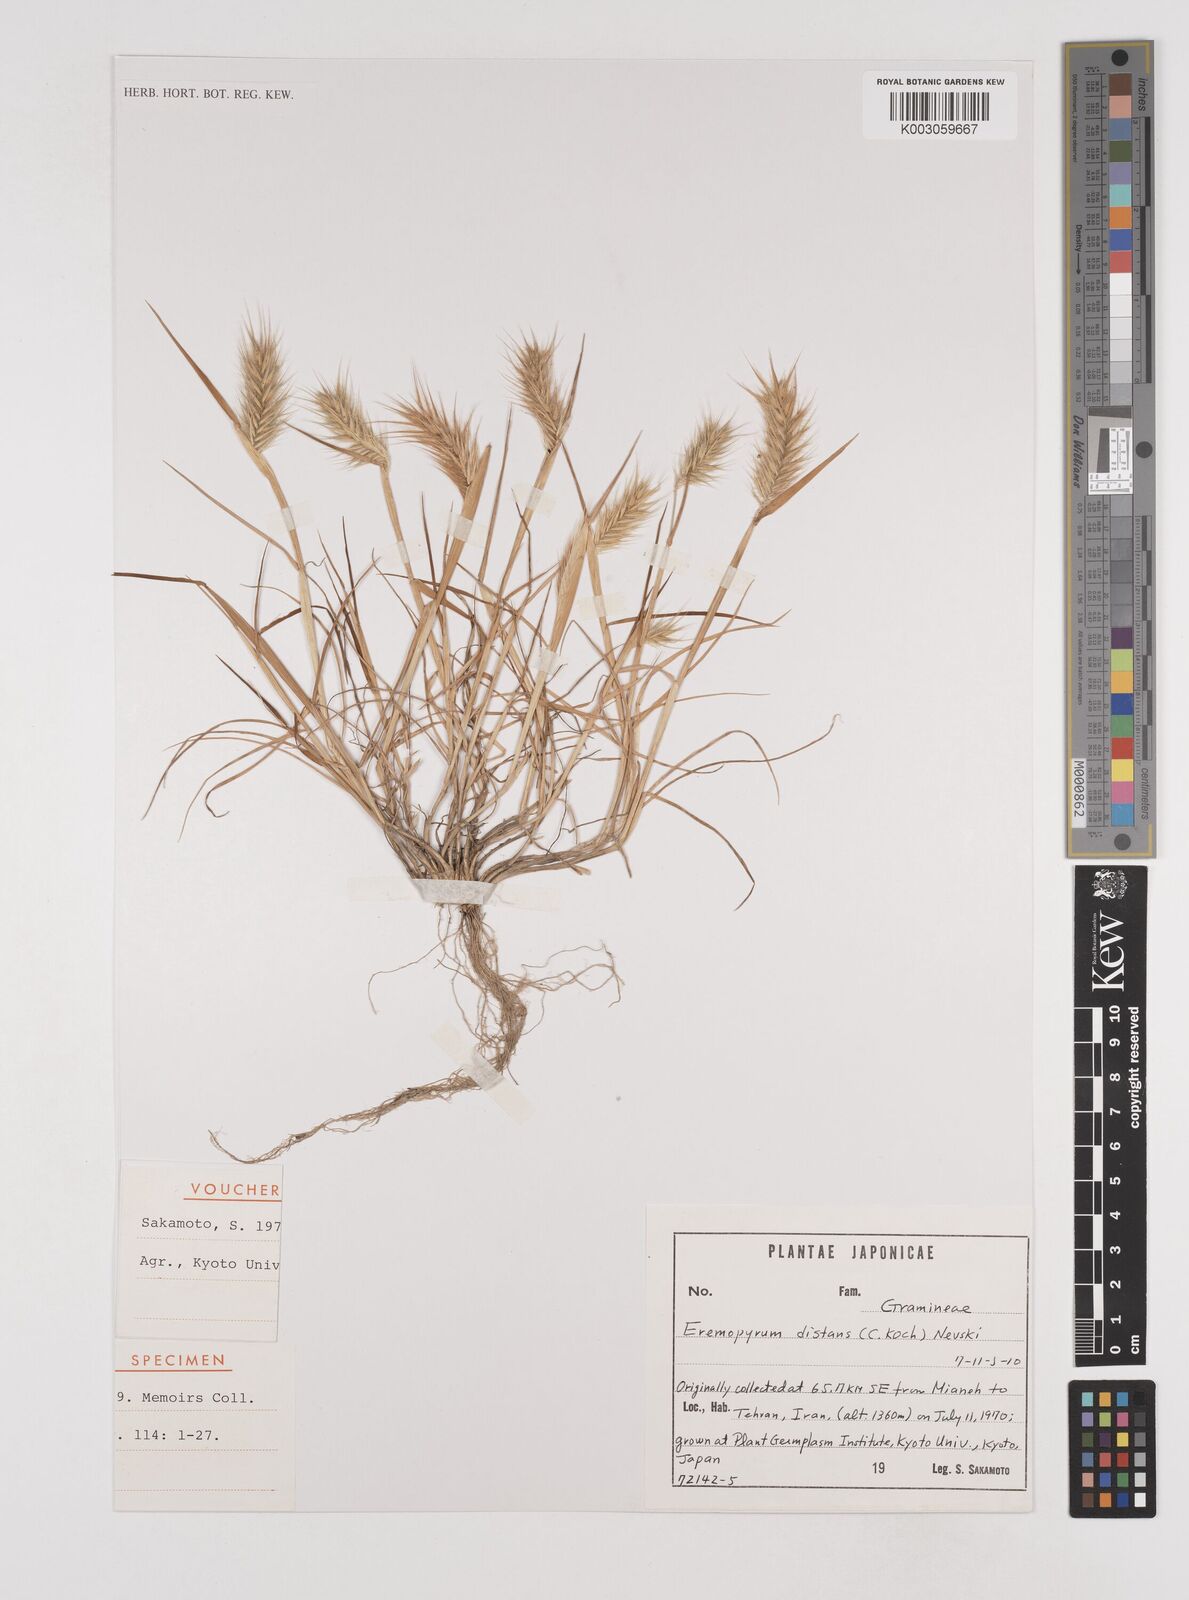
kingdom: Plantae
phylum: Tracheophyta
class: Liliopsida
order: Poales
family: Poaceae
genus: Eremopyrum
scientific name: Eremopyrum distans
